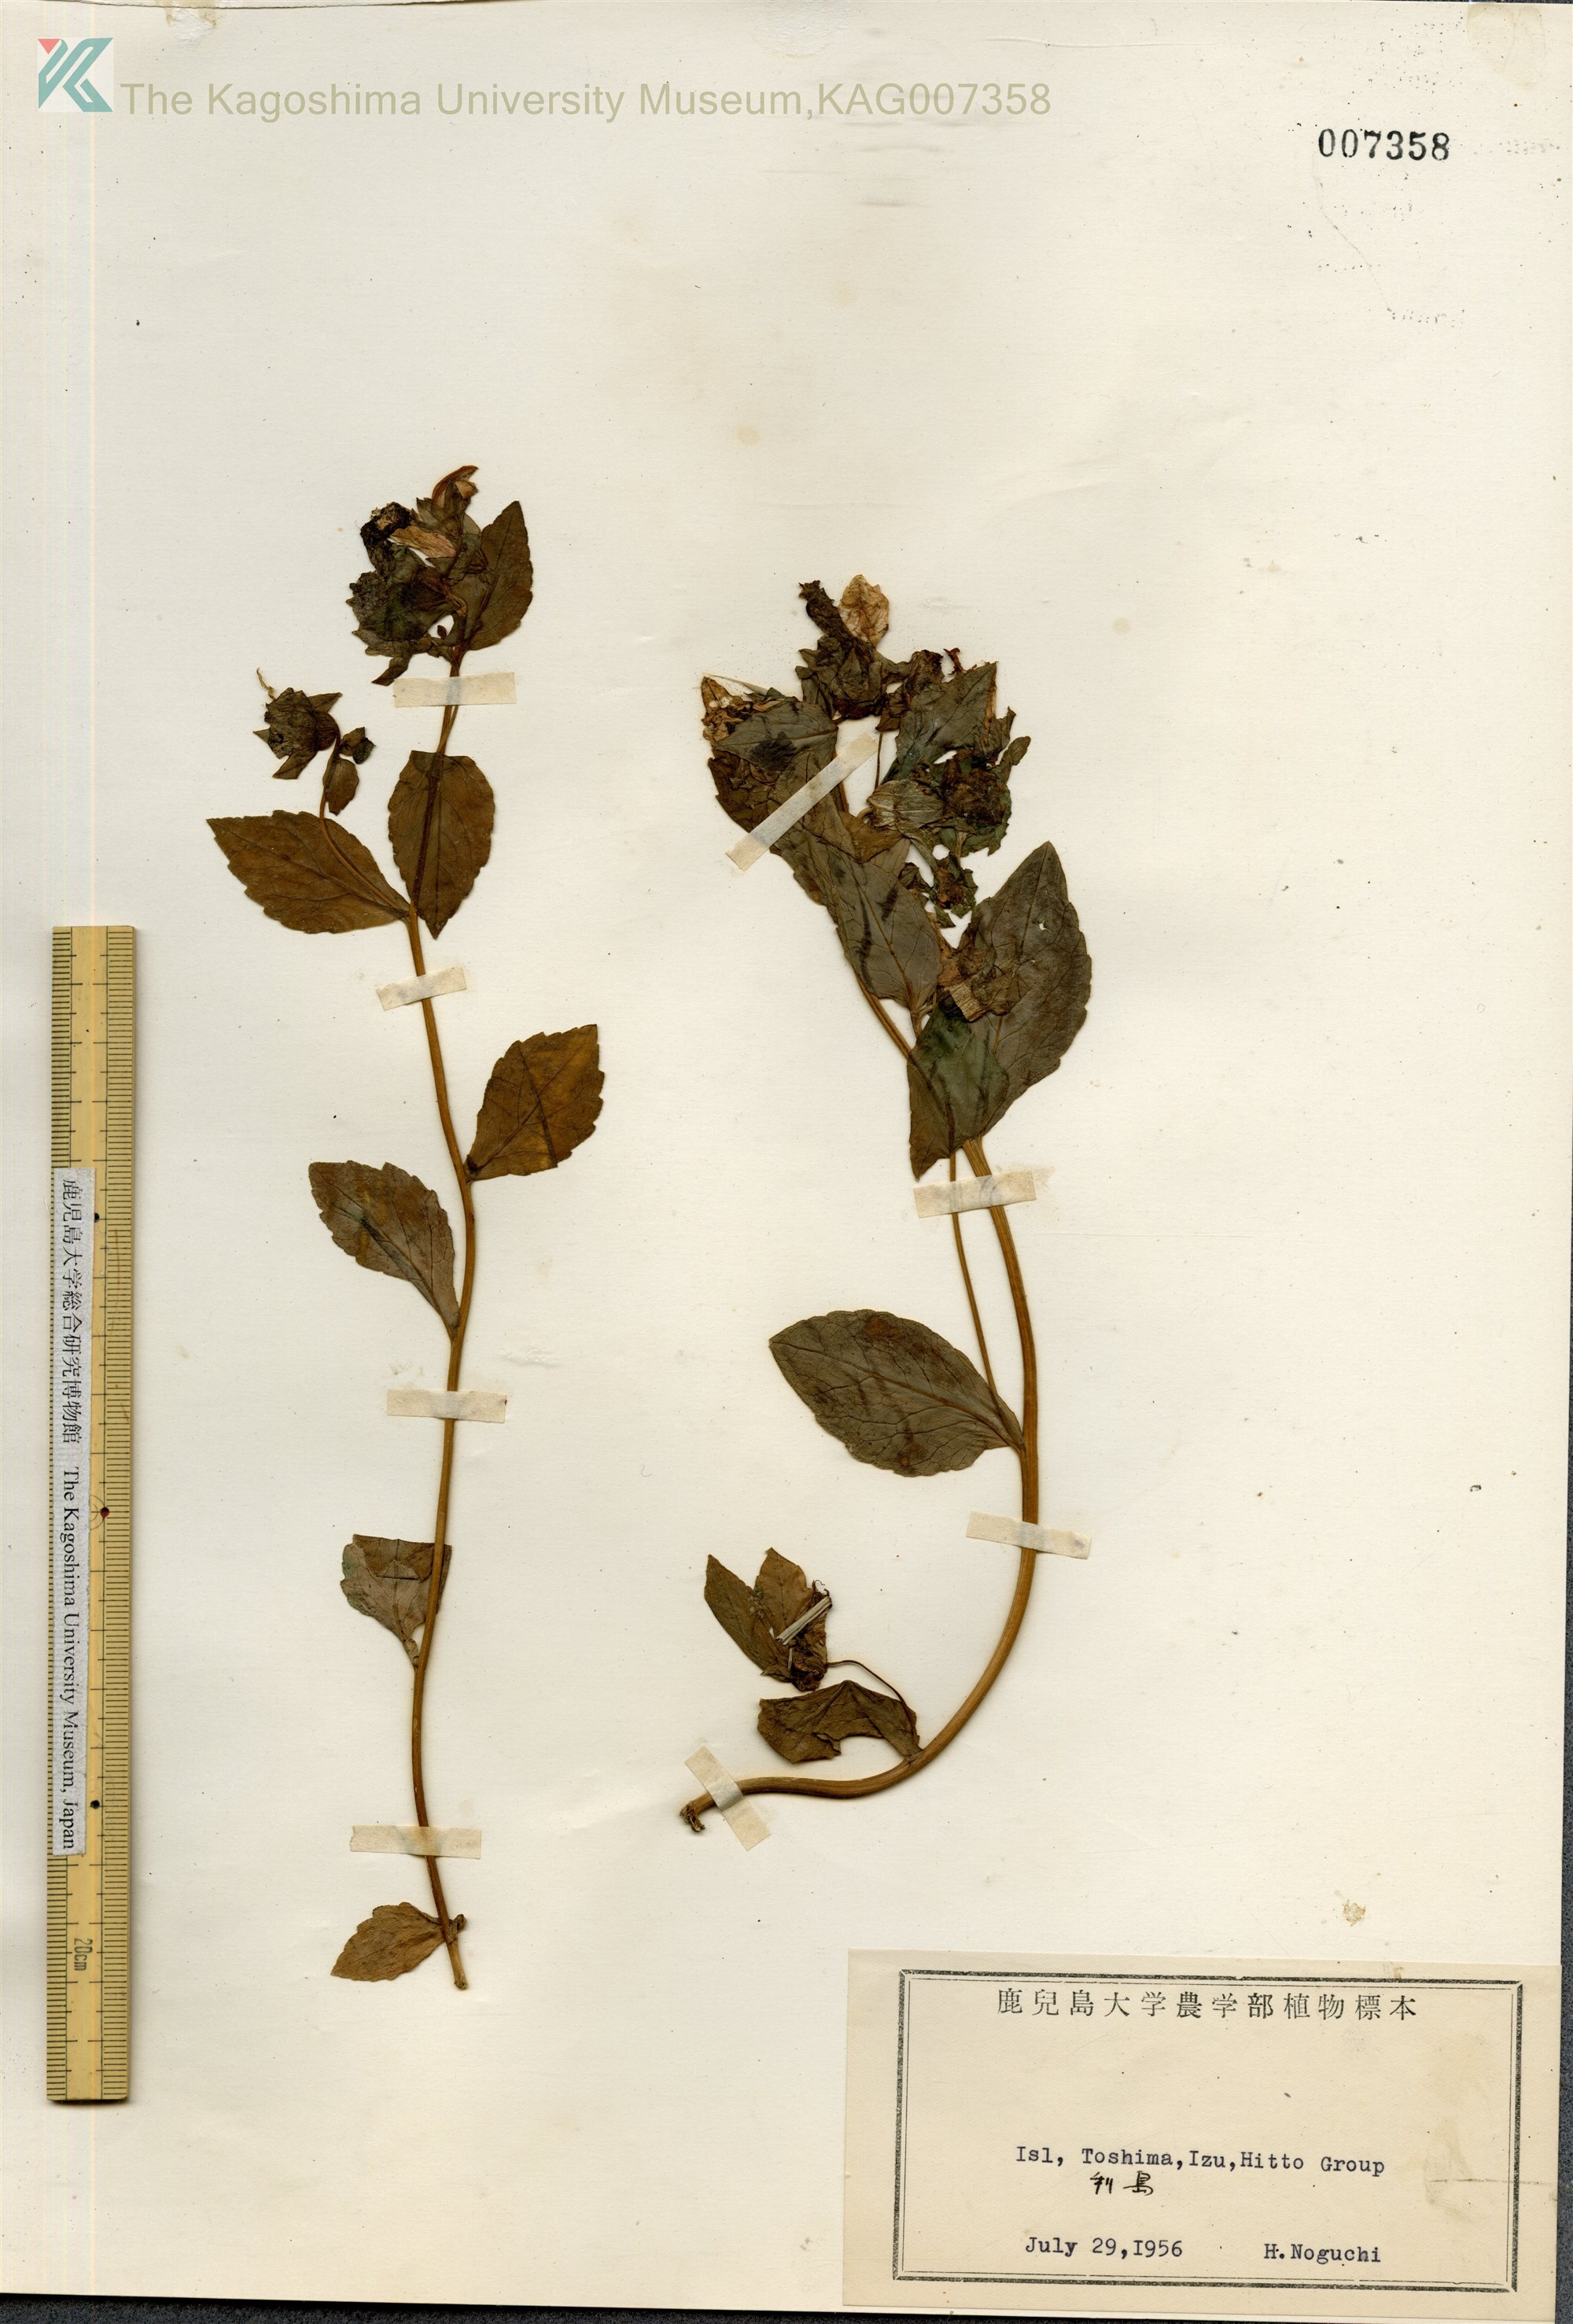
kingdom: Plantae
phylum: Tracheophyta
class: Magnoliopsida
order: Asterales
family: Campanulaceae
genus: Campanula
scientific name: Campanula microdonta
